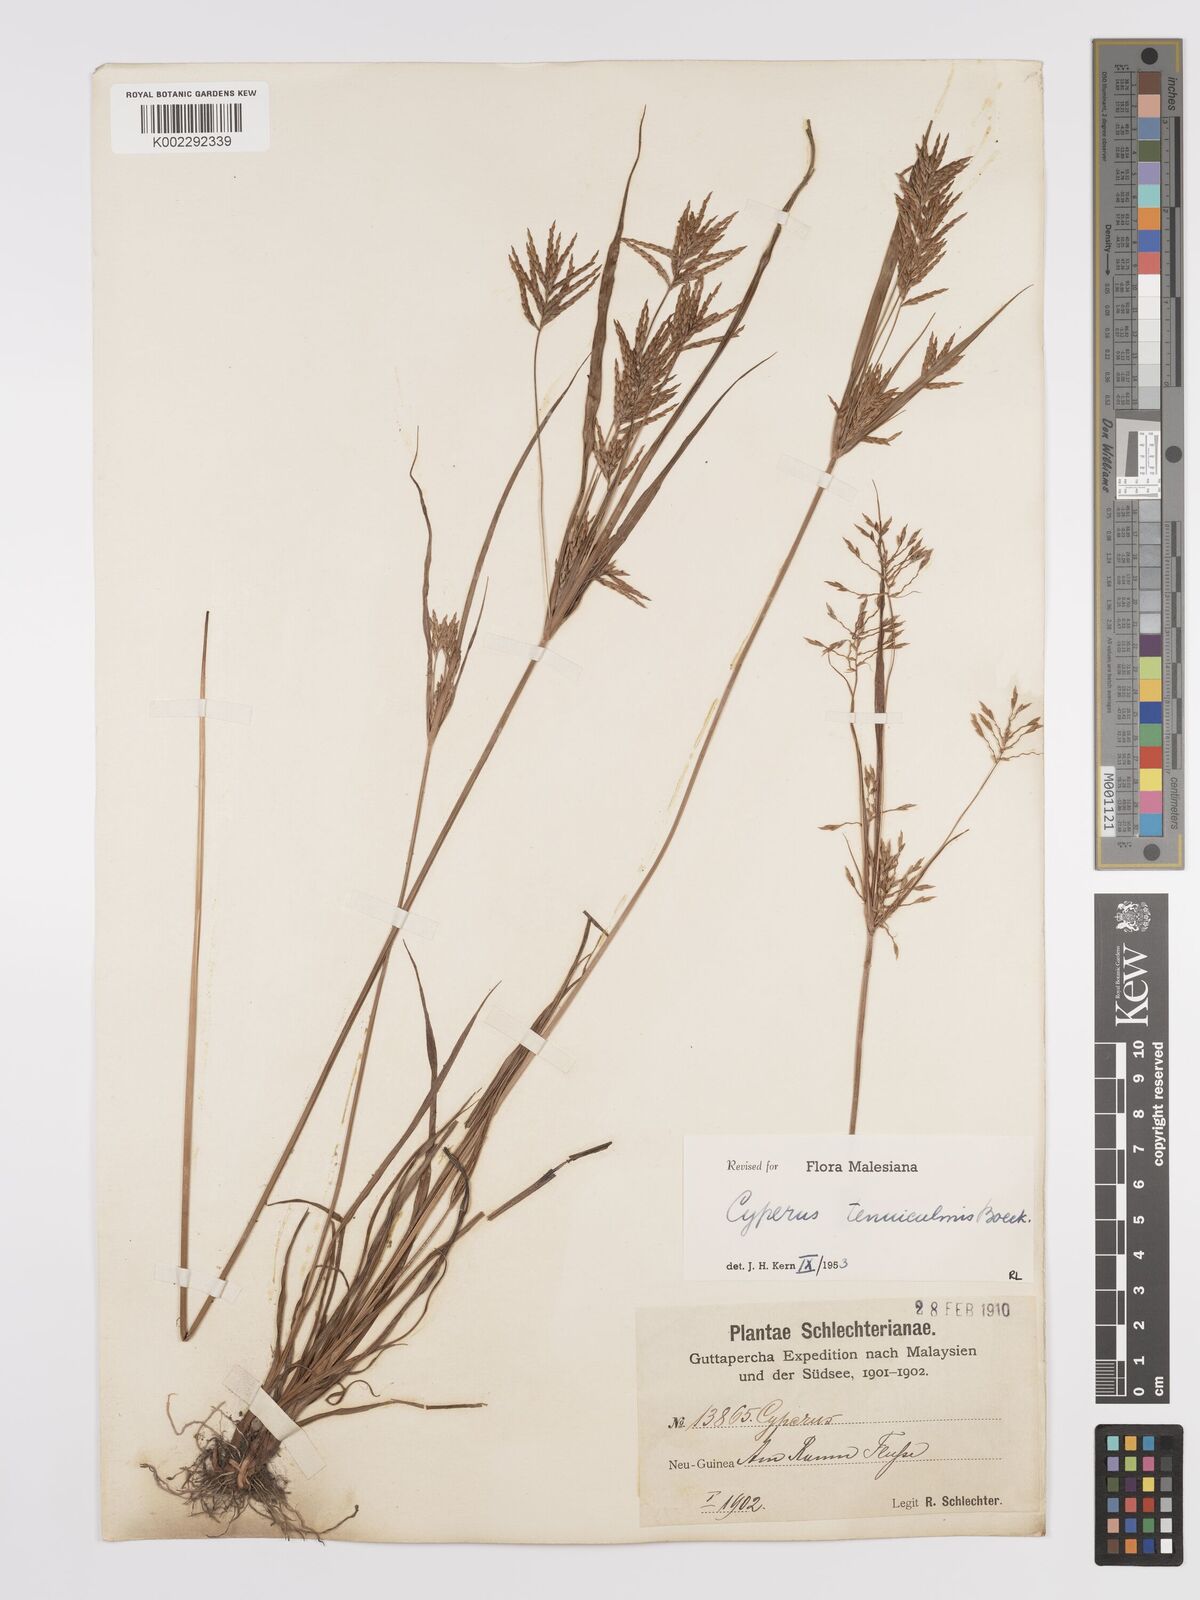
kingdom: Plantae
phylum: Tracheophyta
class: Liliopsida
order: Poales
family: Cyperaceae
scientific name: Cyperaceae
